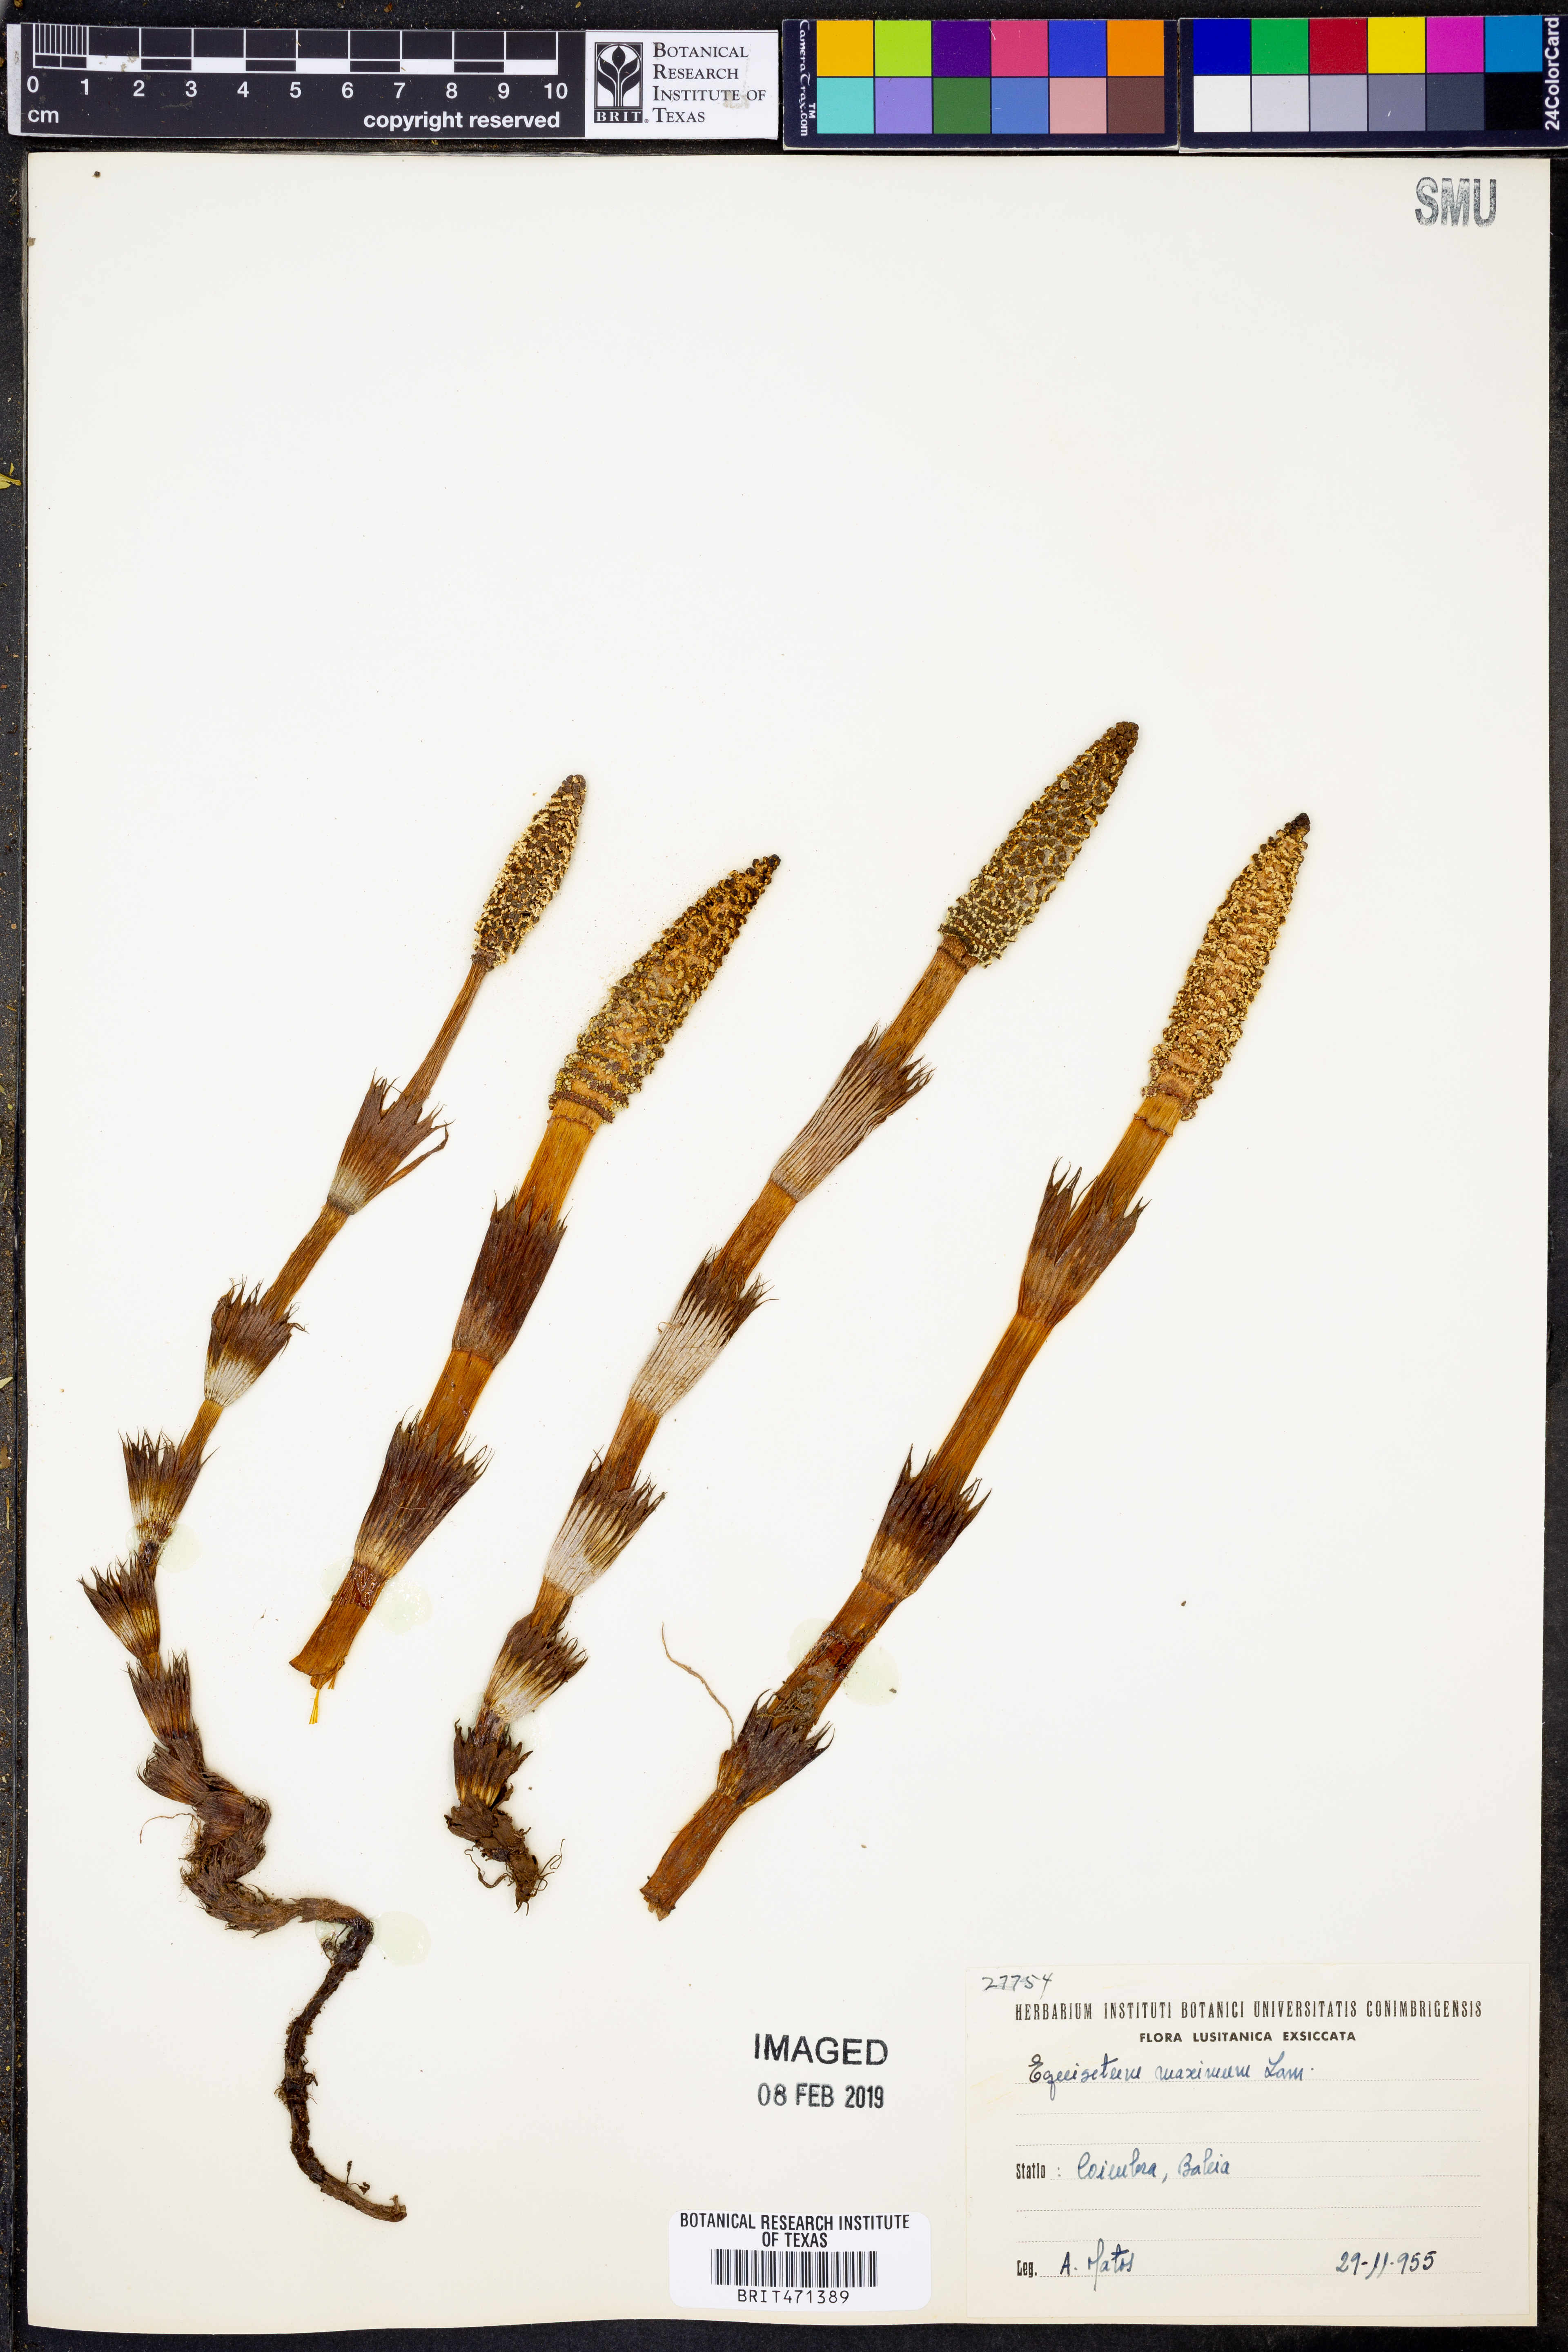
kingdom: Plantae
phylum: Tracheophyta
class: Polypodiopsida
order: Equisetales
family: Equisetaceae
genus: Equisetum
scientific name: Equisetum
